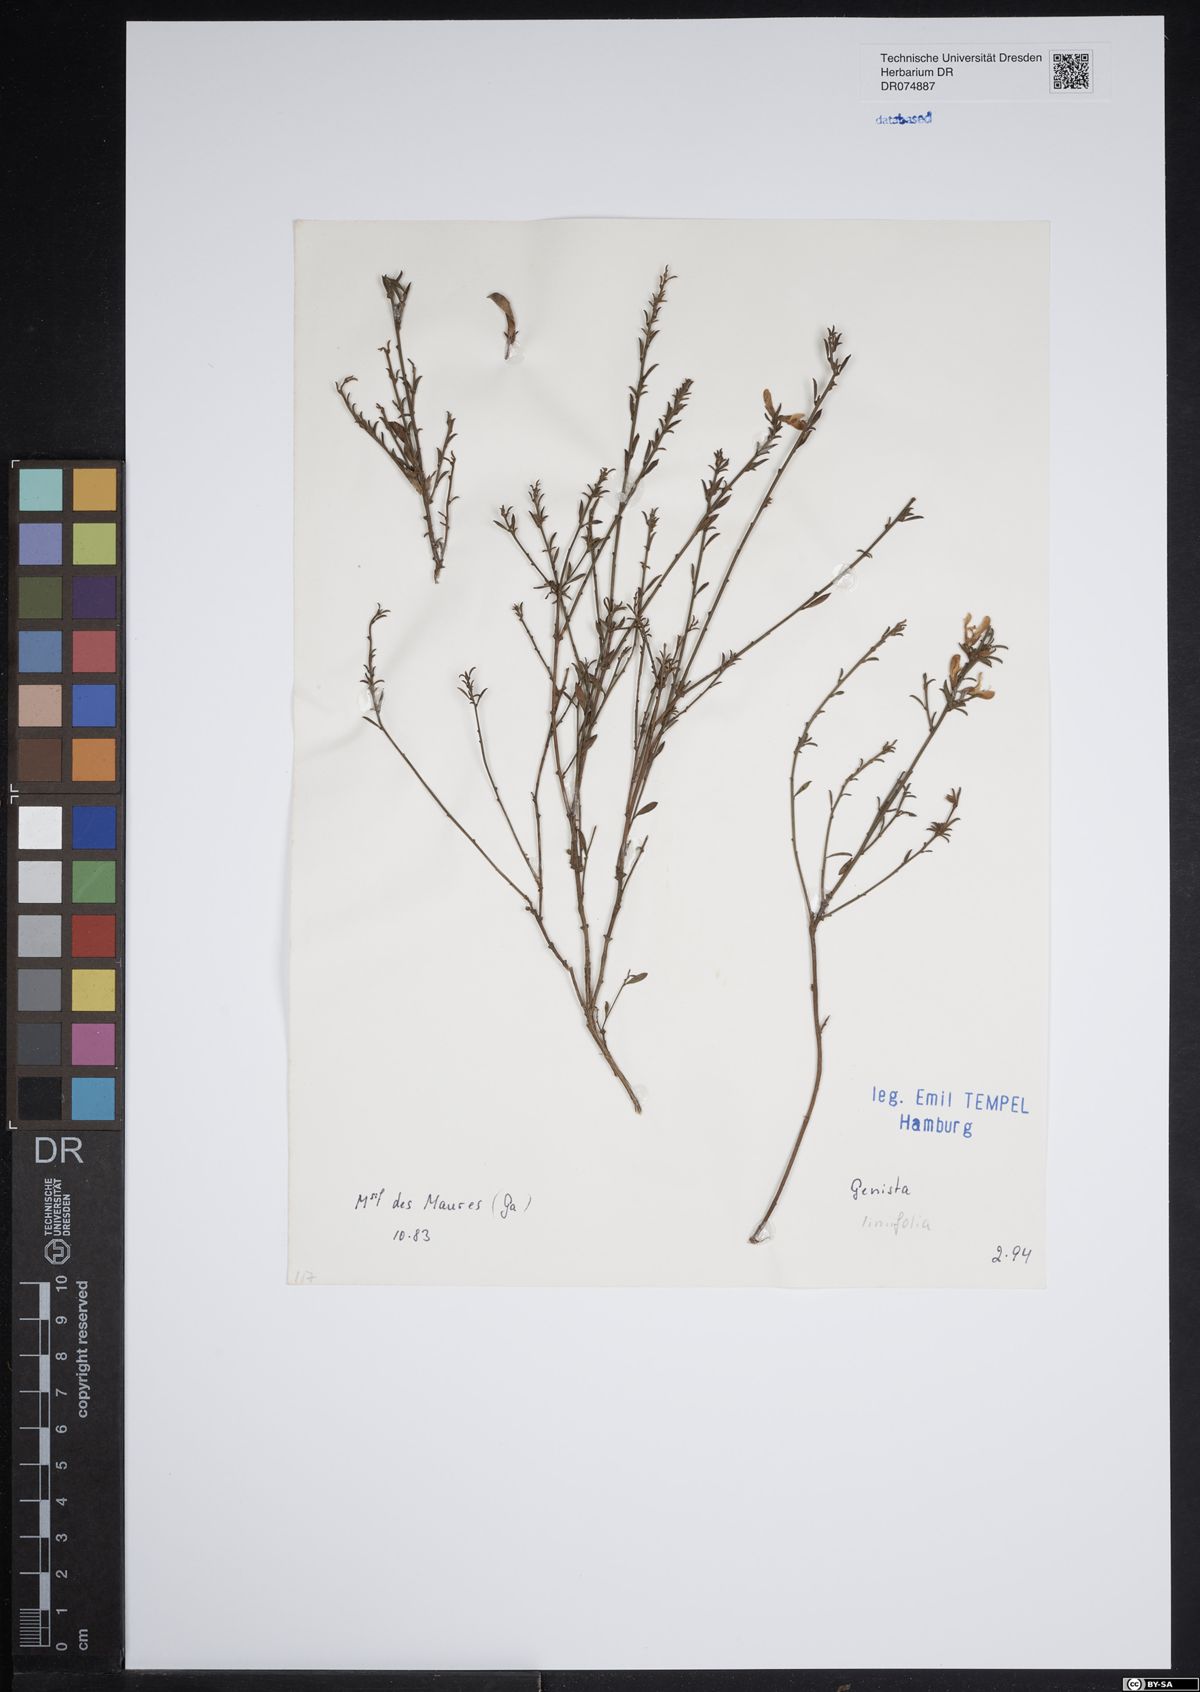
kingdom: Plantae
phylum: Tracheophyta
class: Magnoliopsida
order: Fabales
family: Fabaceae
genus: Genista
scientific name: Genista linifolia
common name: Mediterranean broom
